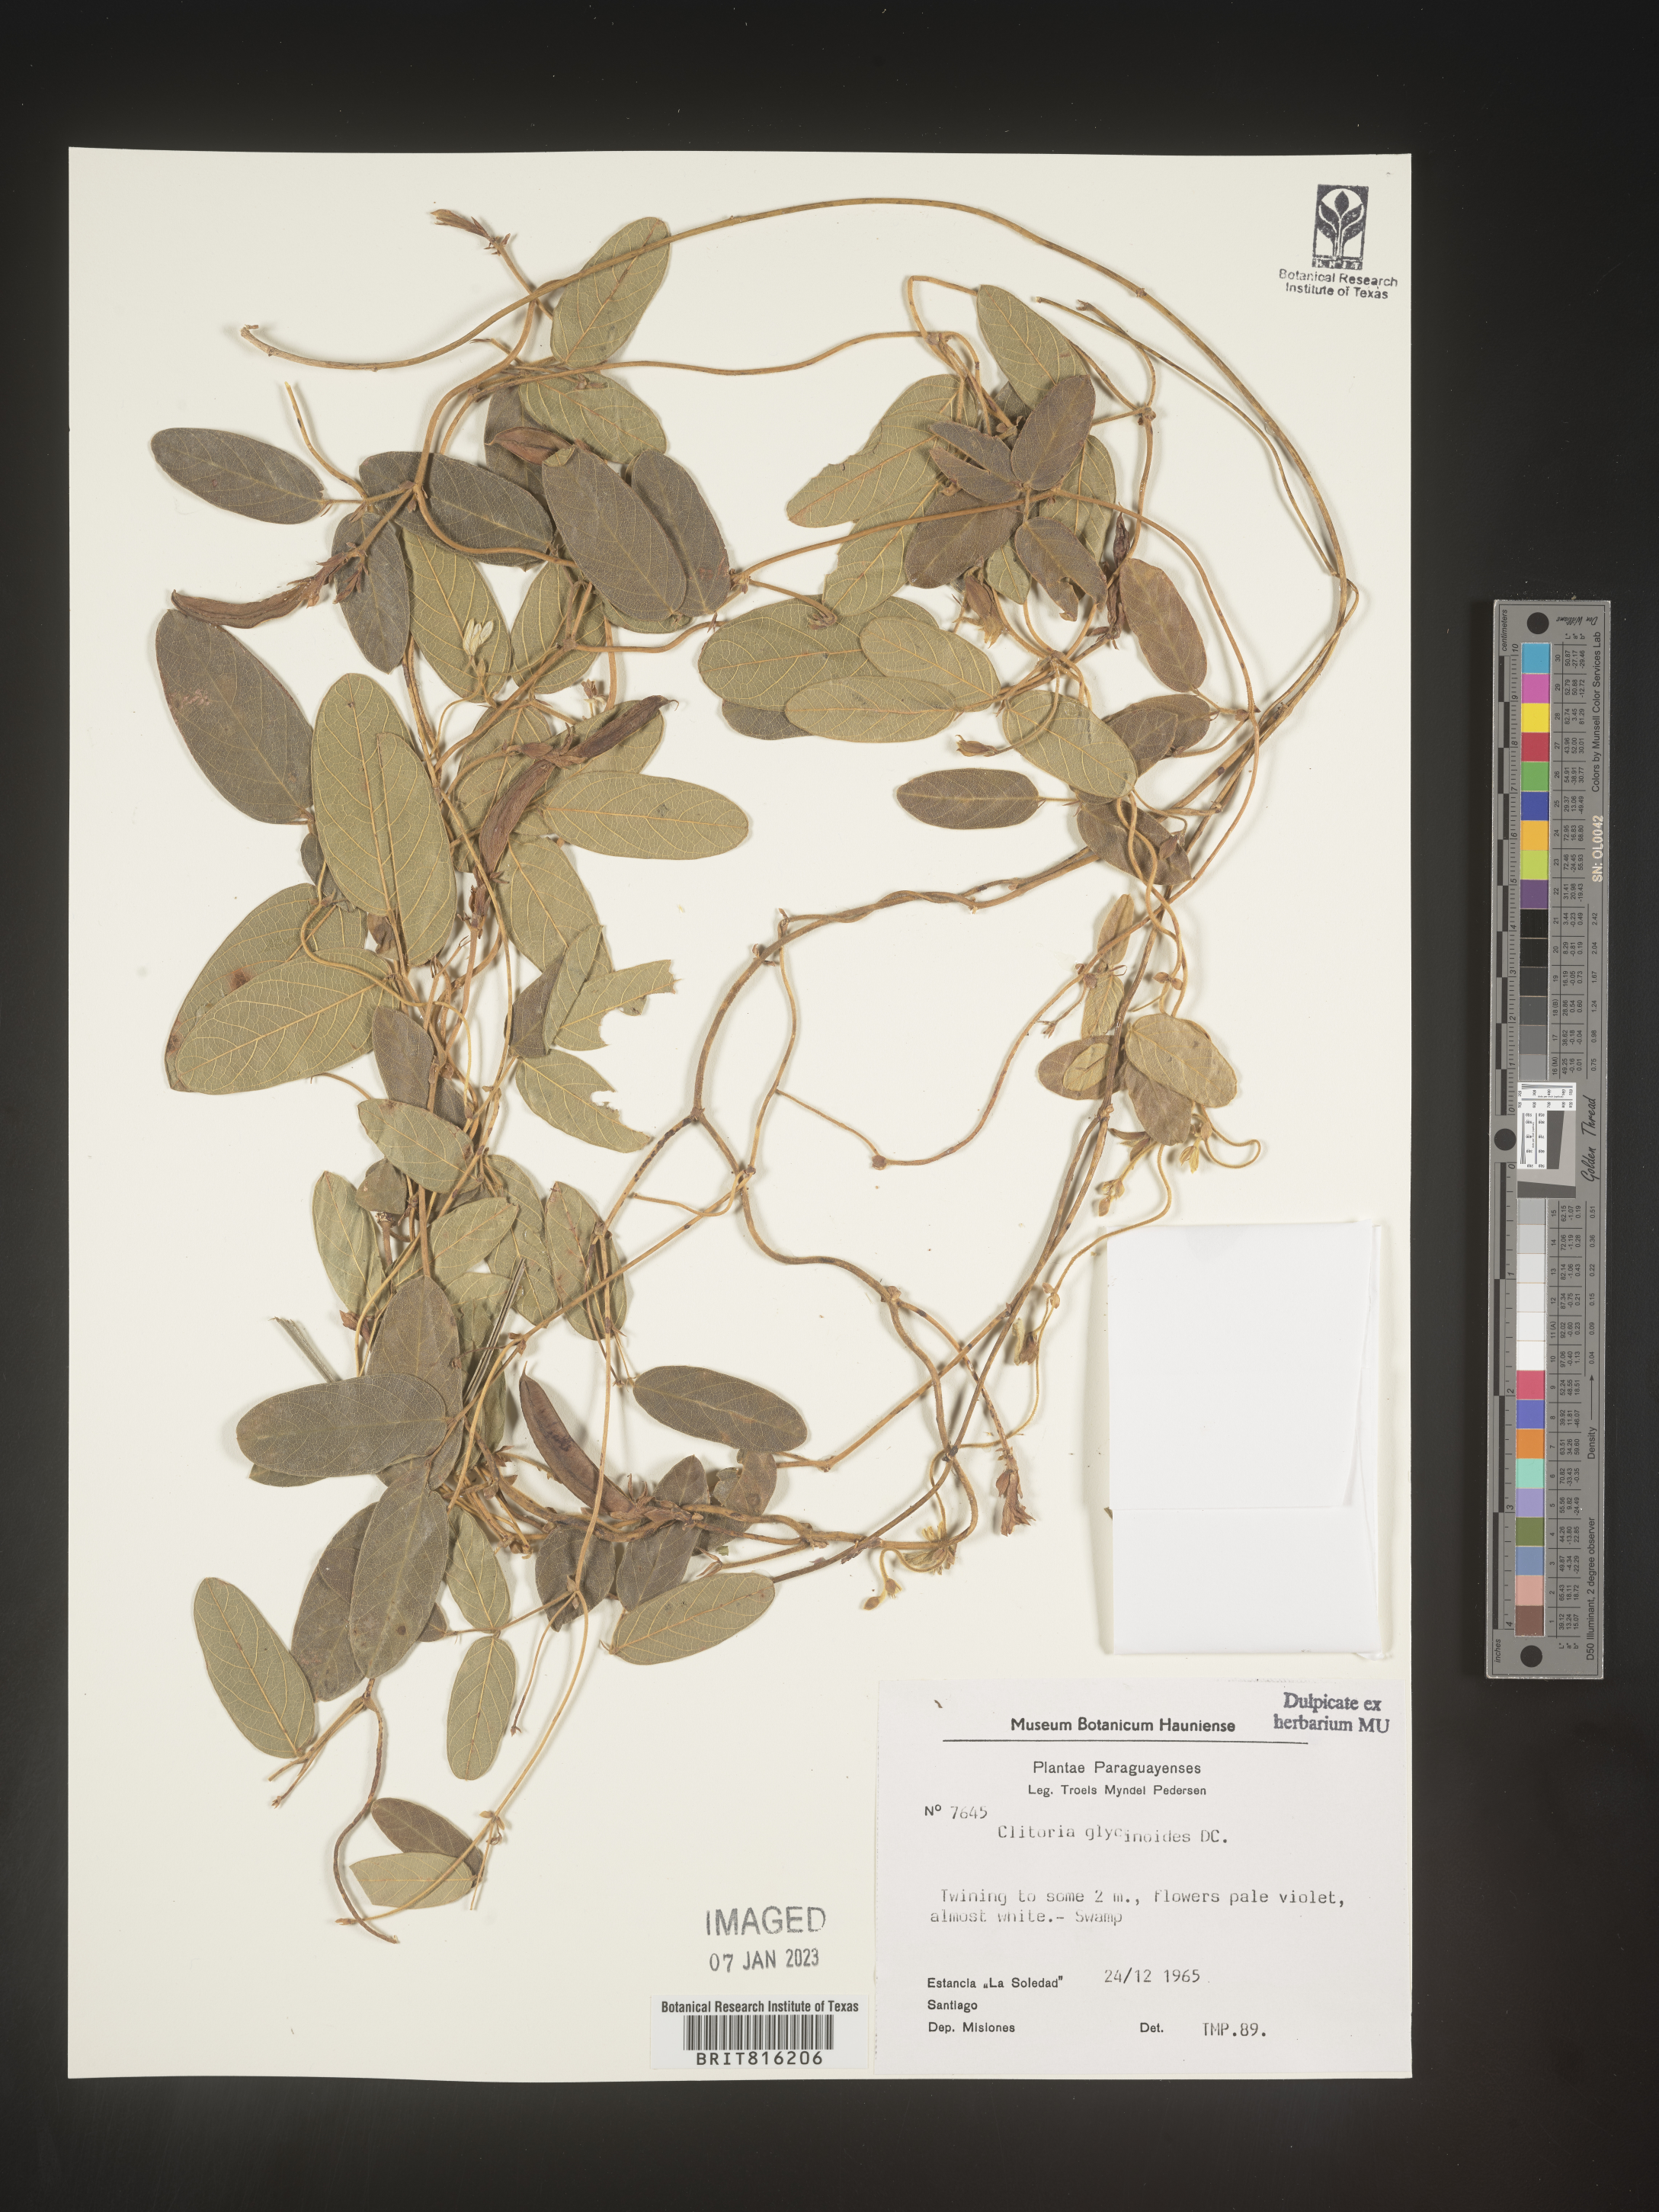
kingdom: Plantae
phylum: Tracheophyta
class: Magnoliopsida
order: Fabales
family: Fabaceae
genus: Clitoria
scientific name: Clitoria
